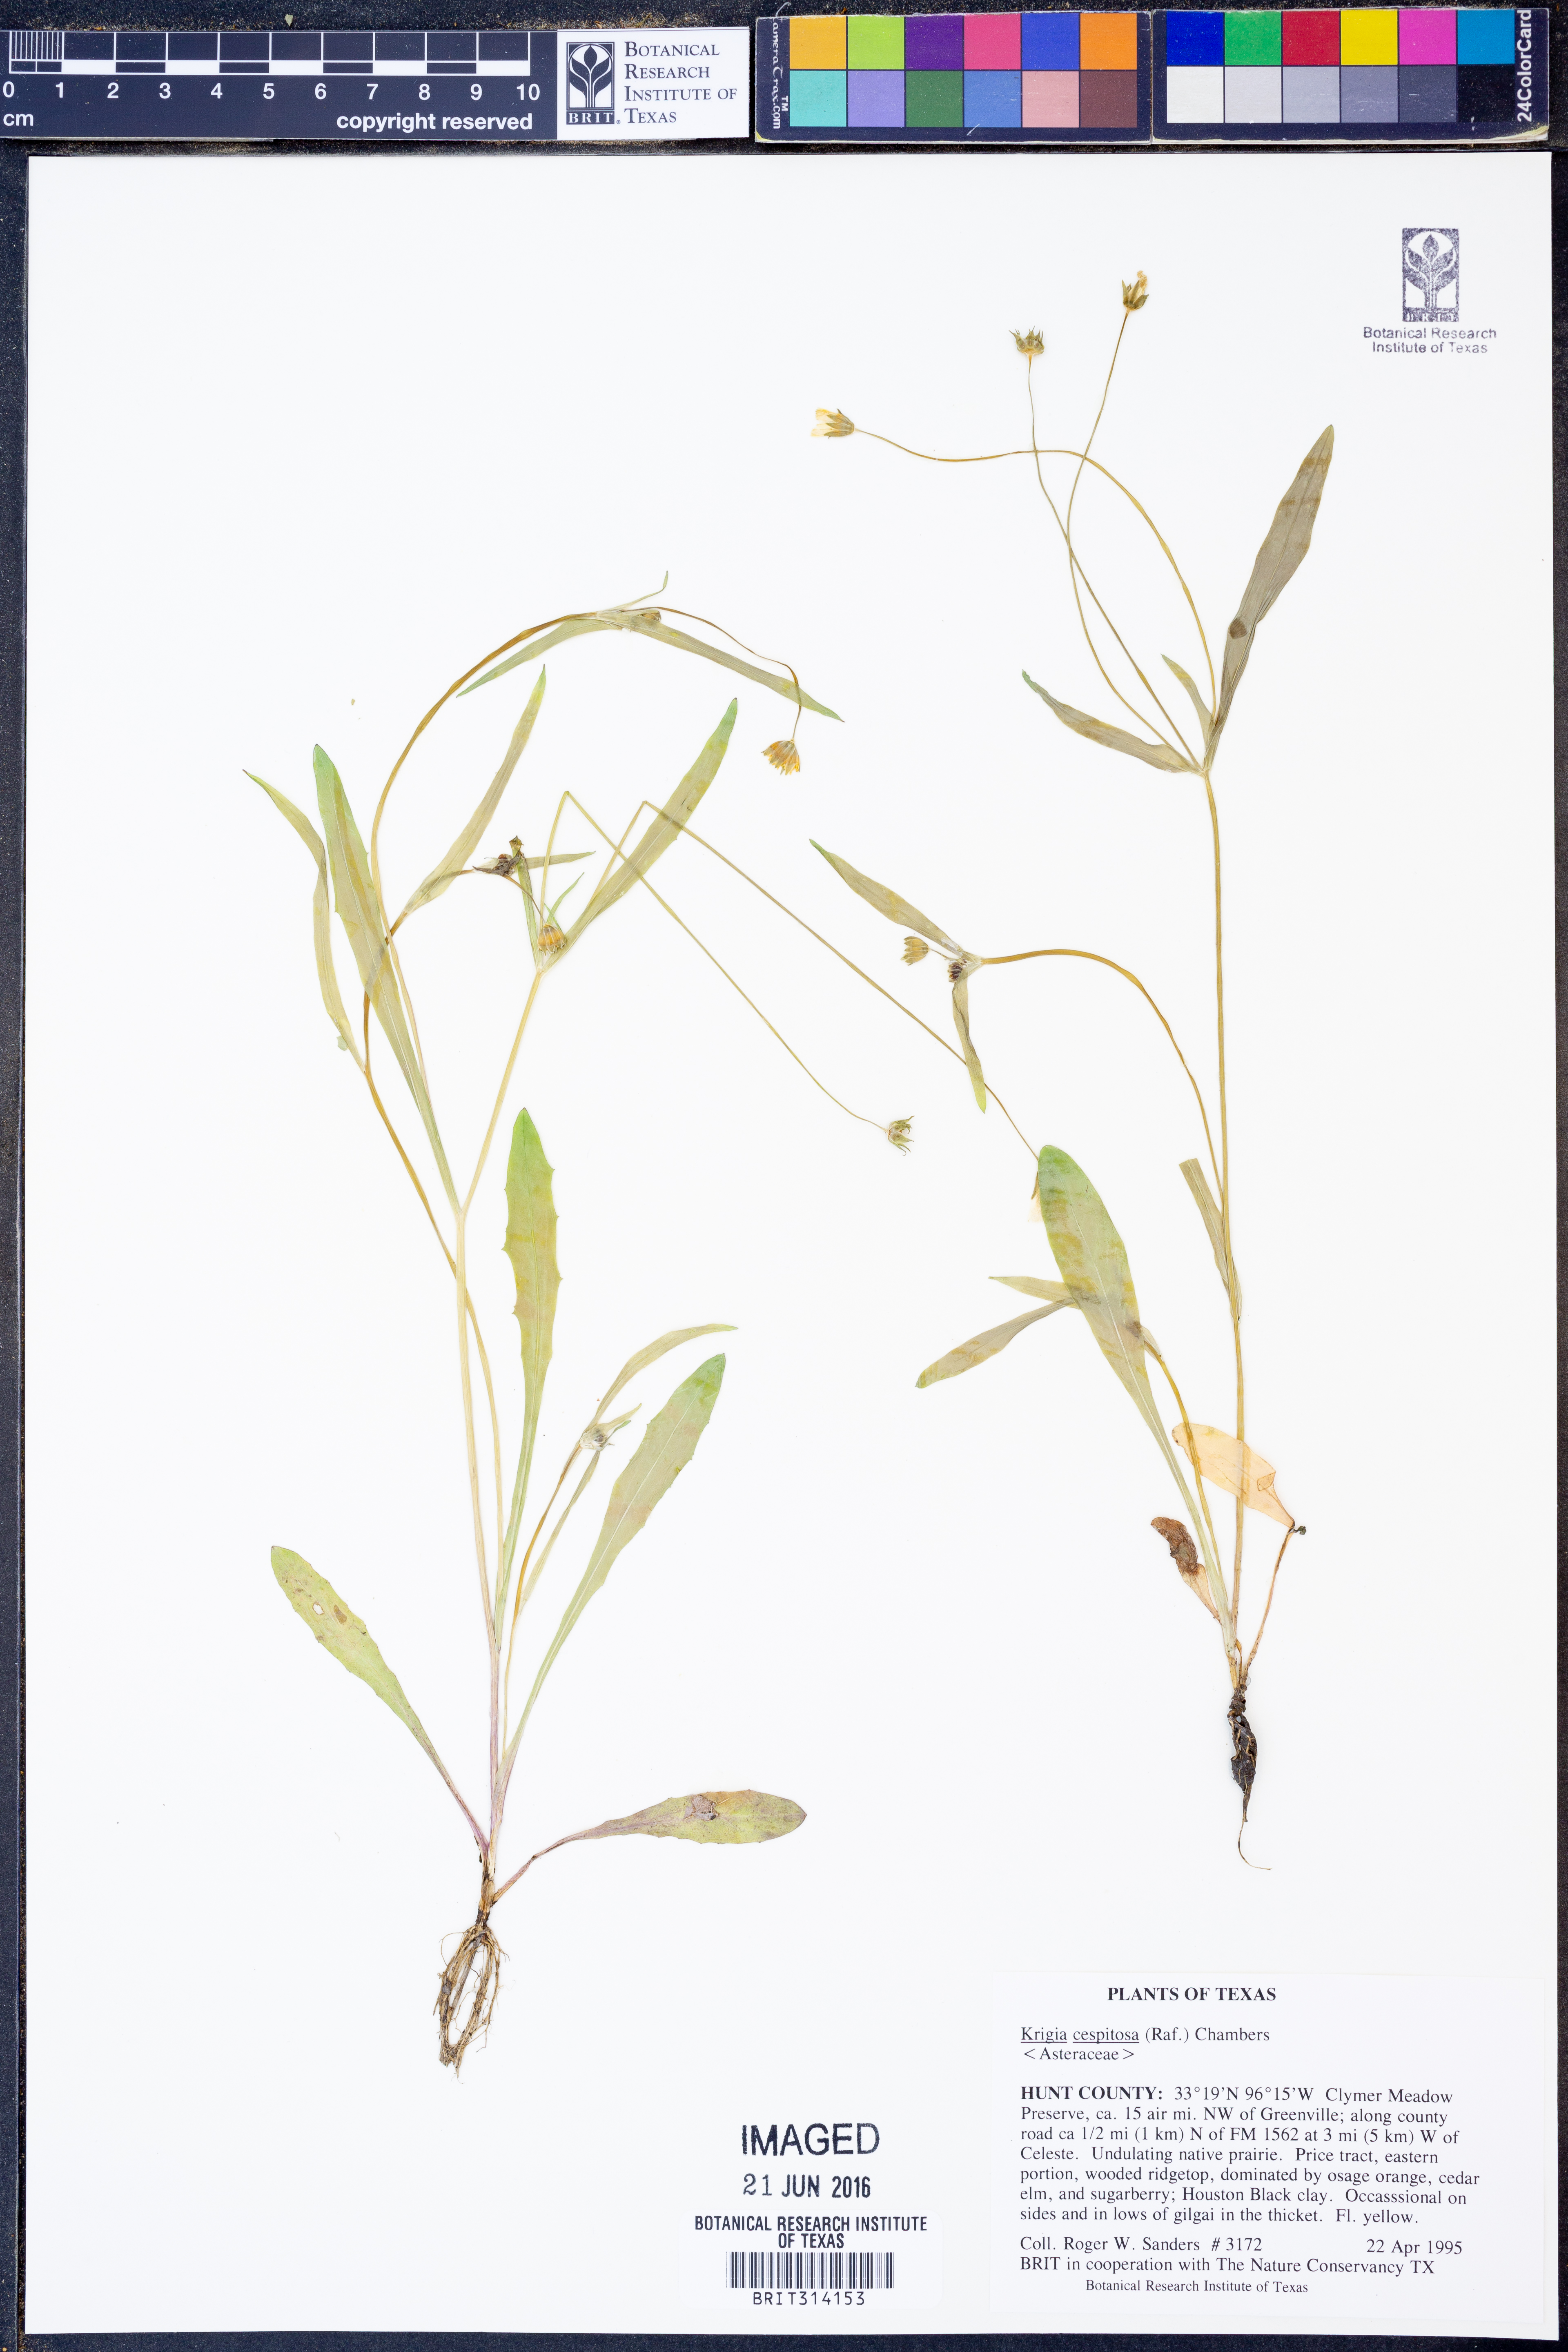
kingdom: Plantae
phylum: Tracheophyta
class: Magnoliopsida
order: Asterales
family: Asteraceae
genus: Krigia
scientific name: Krigia cespitosa
